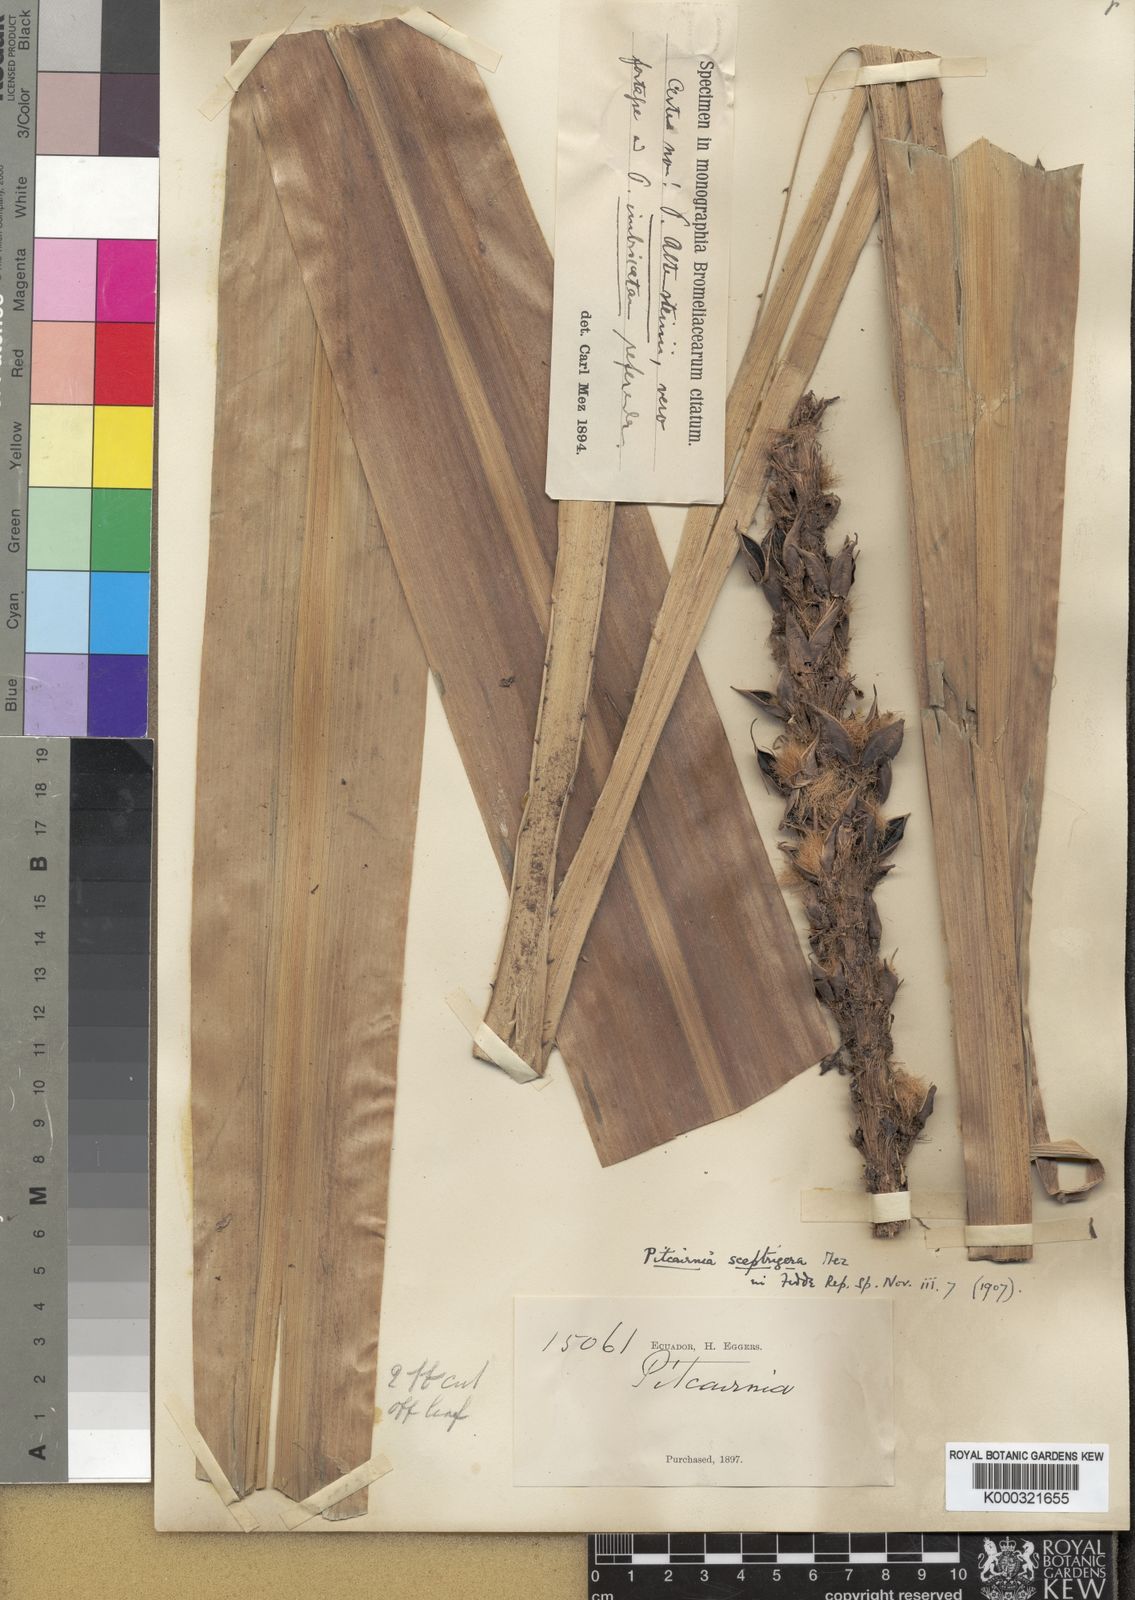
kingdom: Plantae
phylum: Tracheophyta
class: Liliopsida
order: Poales
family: Bromeliaceae
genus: Pitcairnia
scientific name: Pitcairnia sceptrigera
